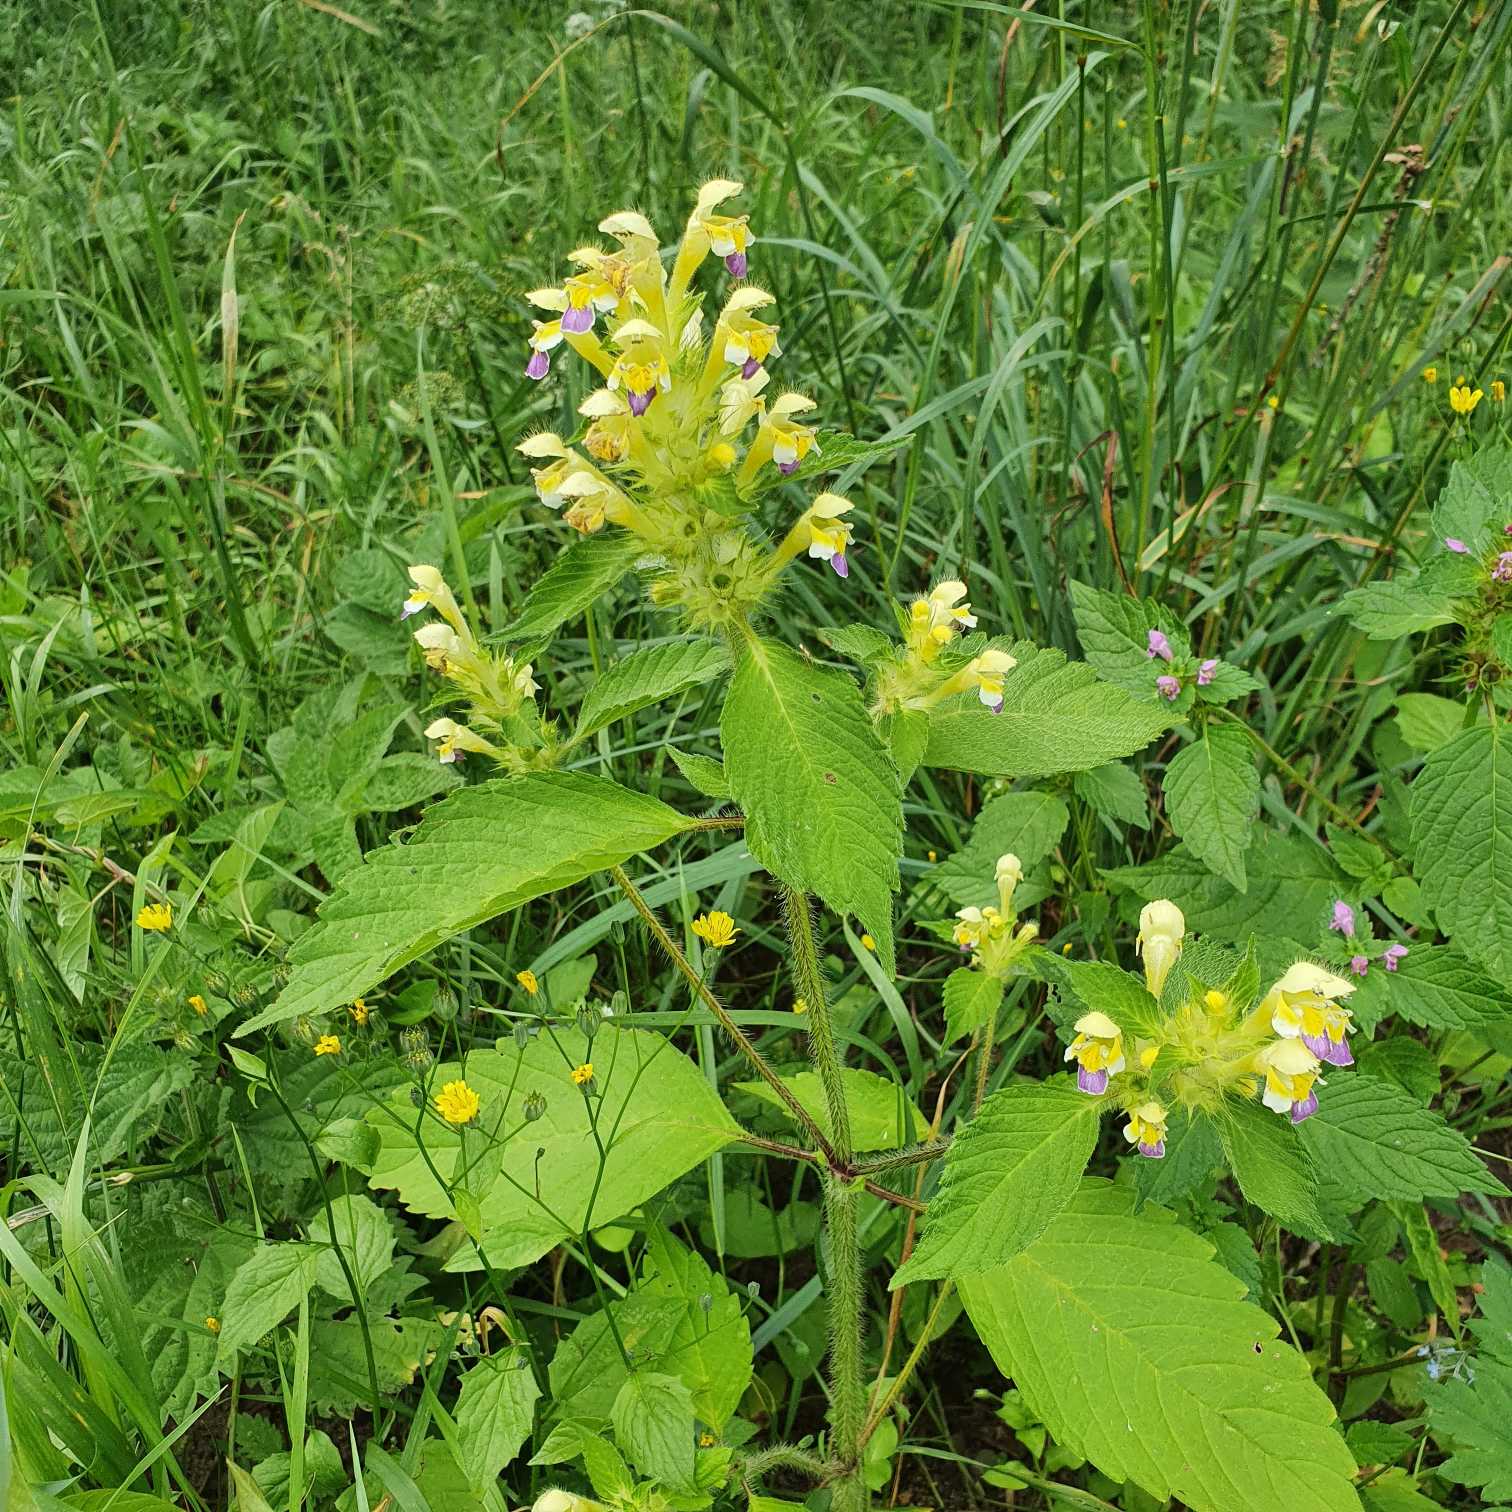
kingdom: Plantae
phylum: Tracheophyta
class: Magnoliopsida
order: Lamiales
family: Lamiaceae
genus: Galeopsis
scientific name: Galeopsis speciosa
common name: Hamp-hanekro
